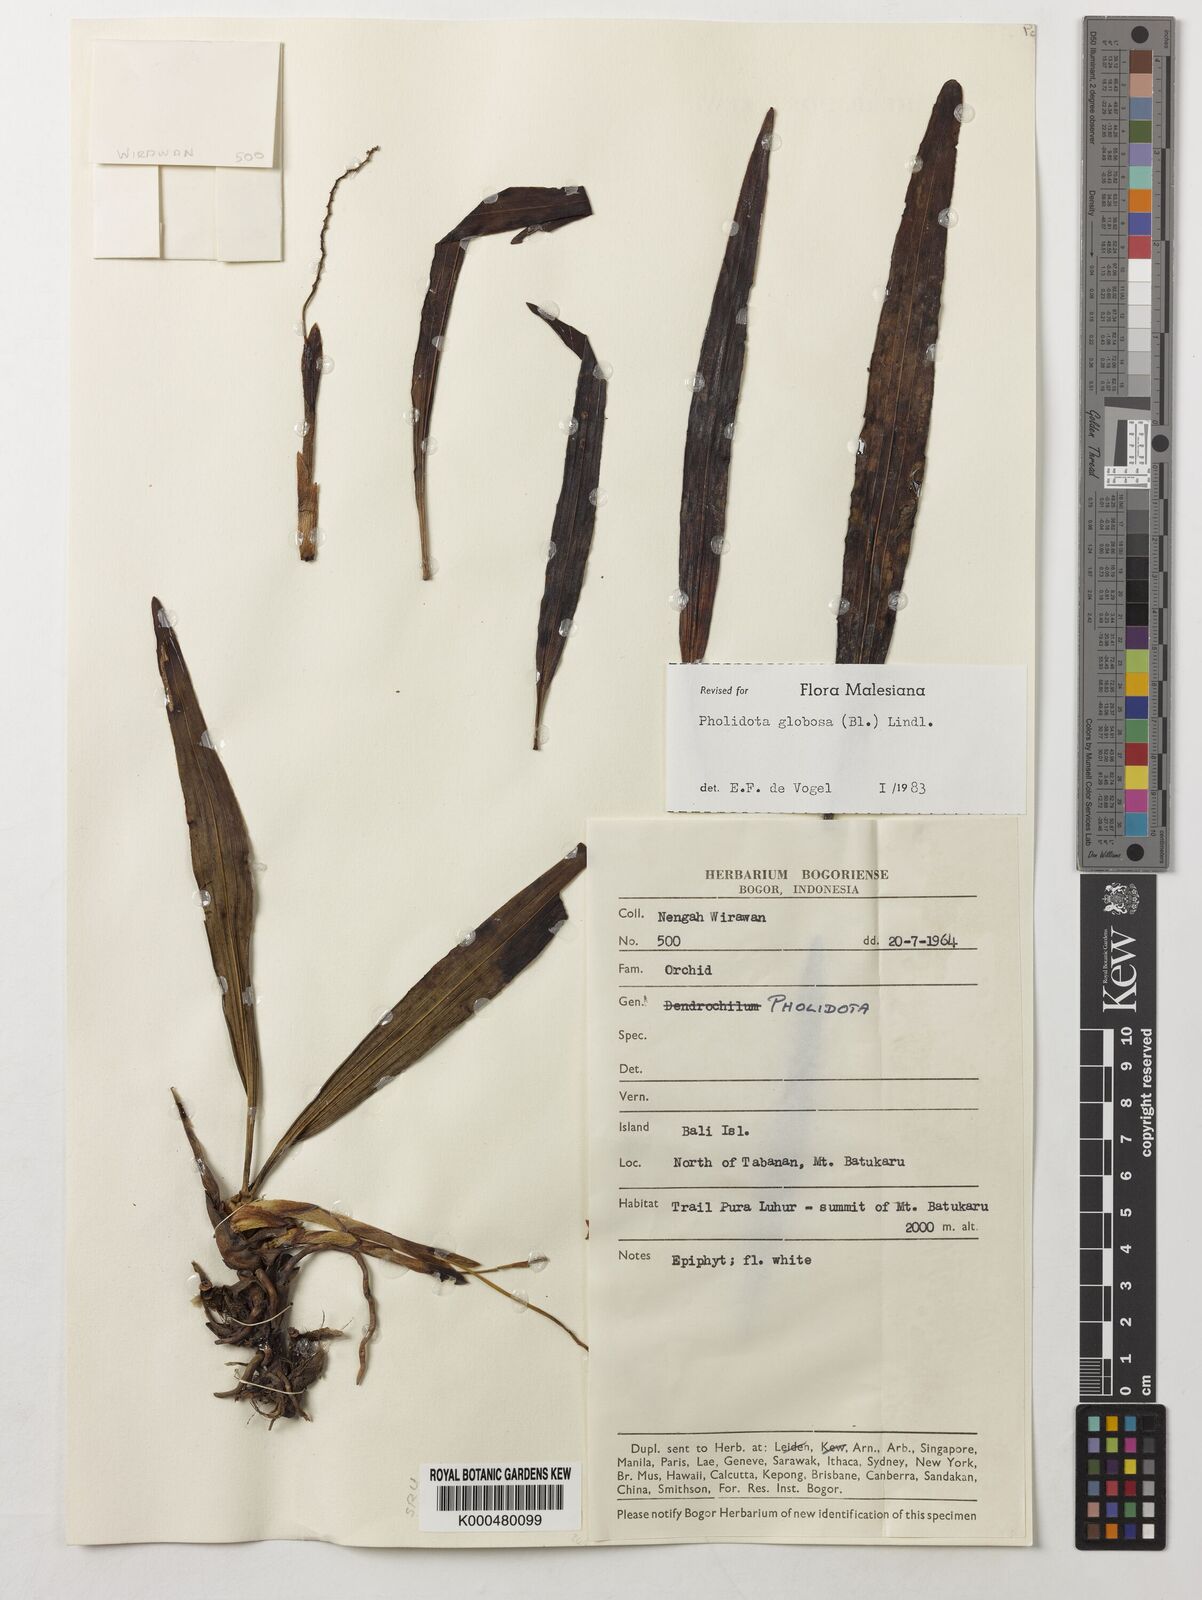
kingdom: Plantae
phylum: Tracheophyta
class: Liliopsida
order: Asparagales
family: Orchidaceae
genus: Coelogyne
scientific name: Coelogyne globosa
